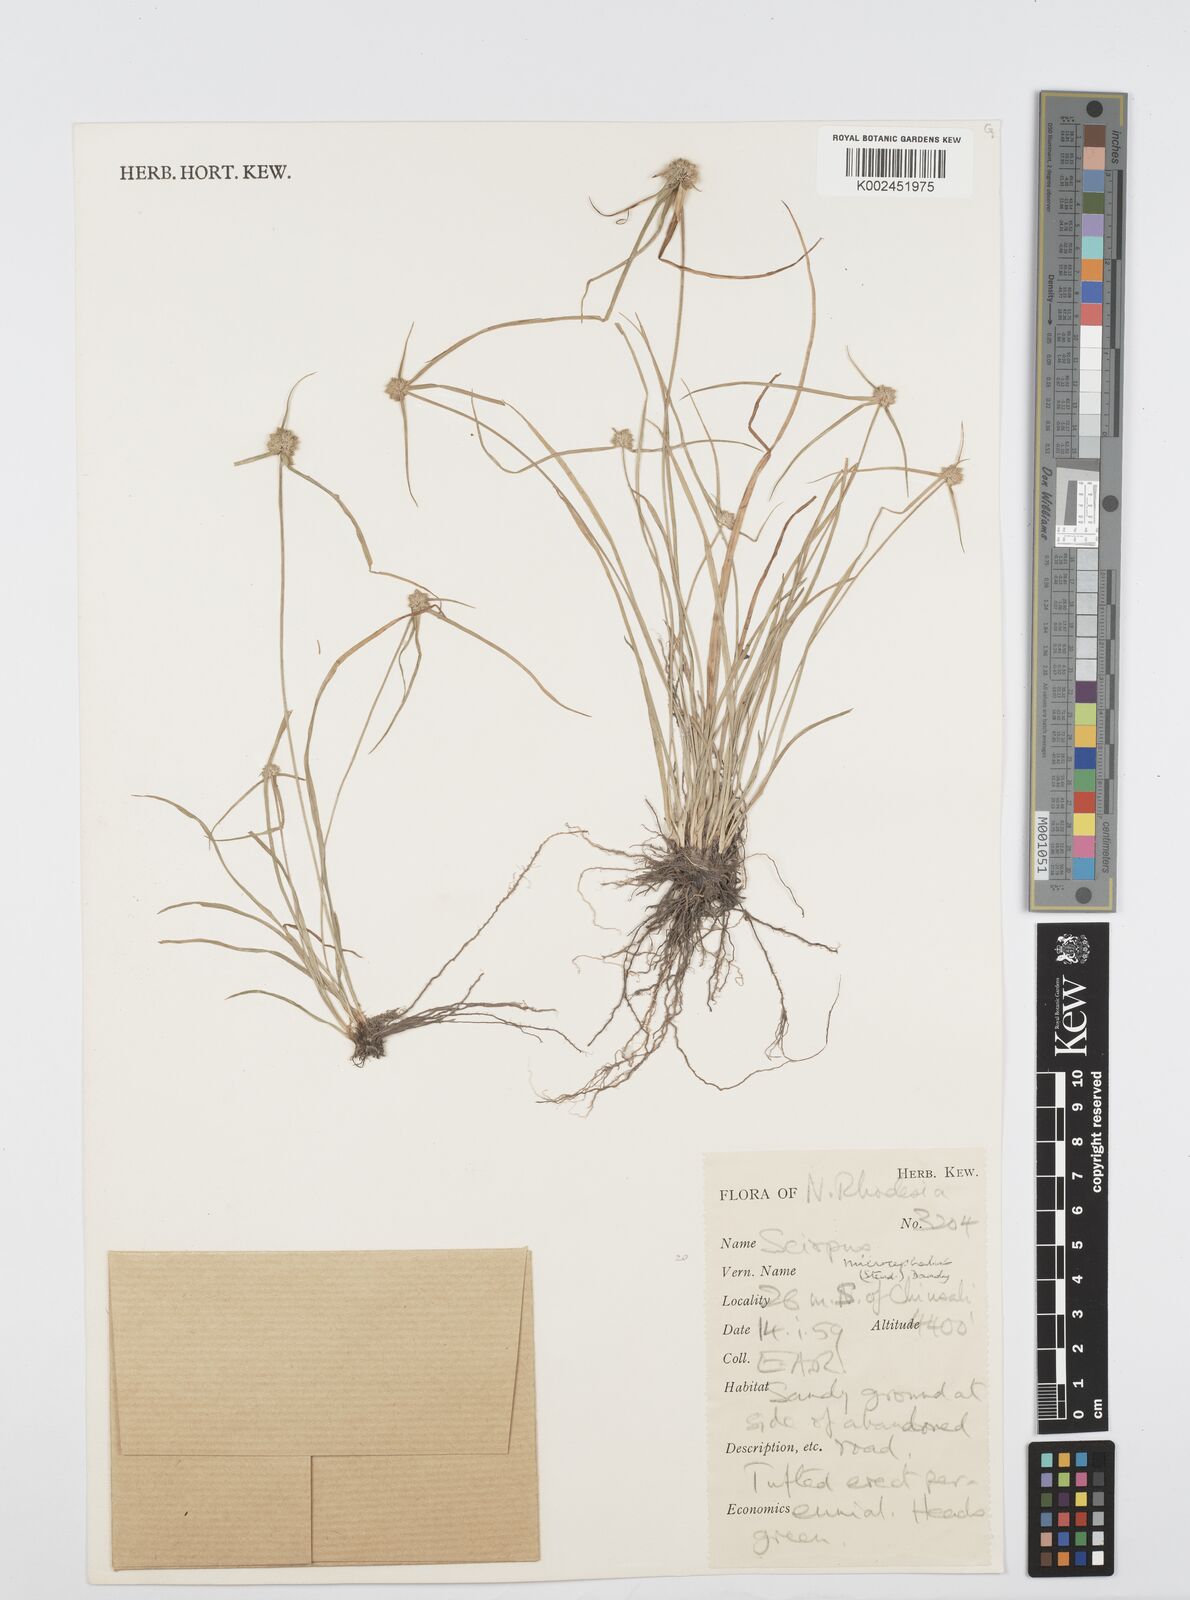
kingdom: Plantae
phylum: Tracheophyta
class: Liliopsida
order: Poales
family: Cyperaceae
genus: Cyperus
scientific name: Cyperus microcephalus
